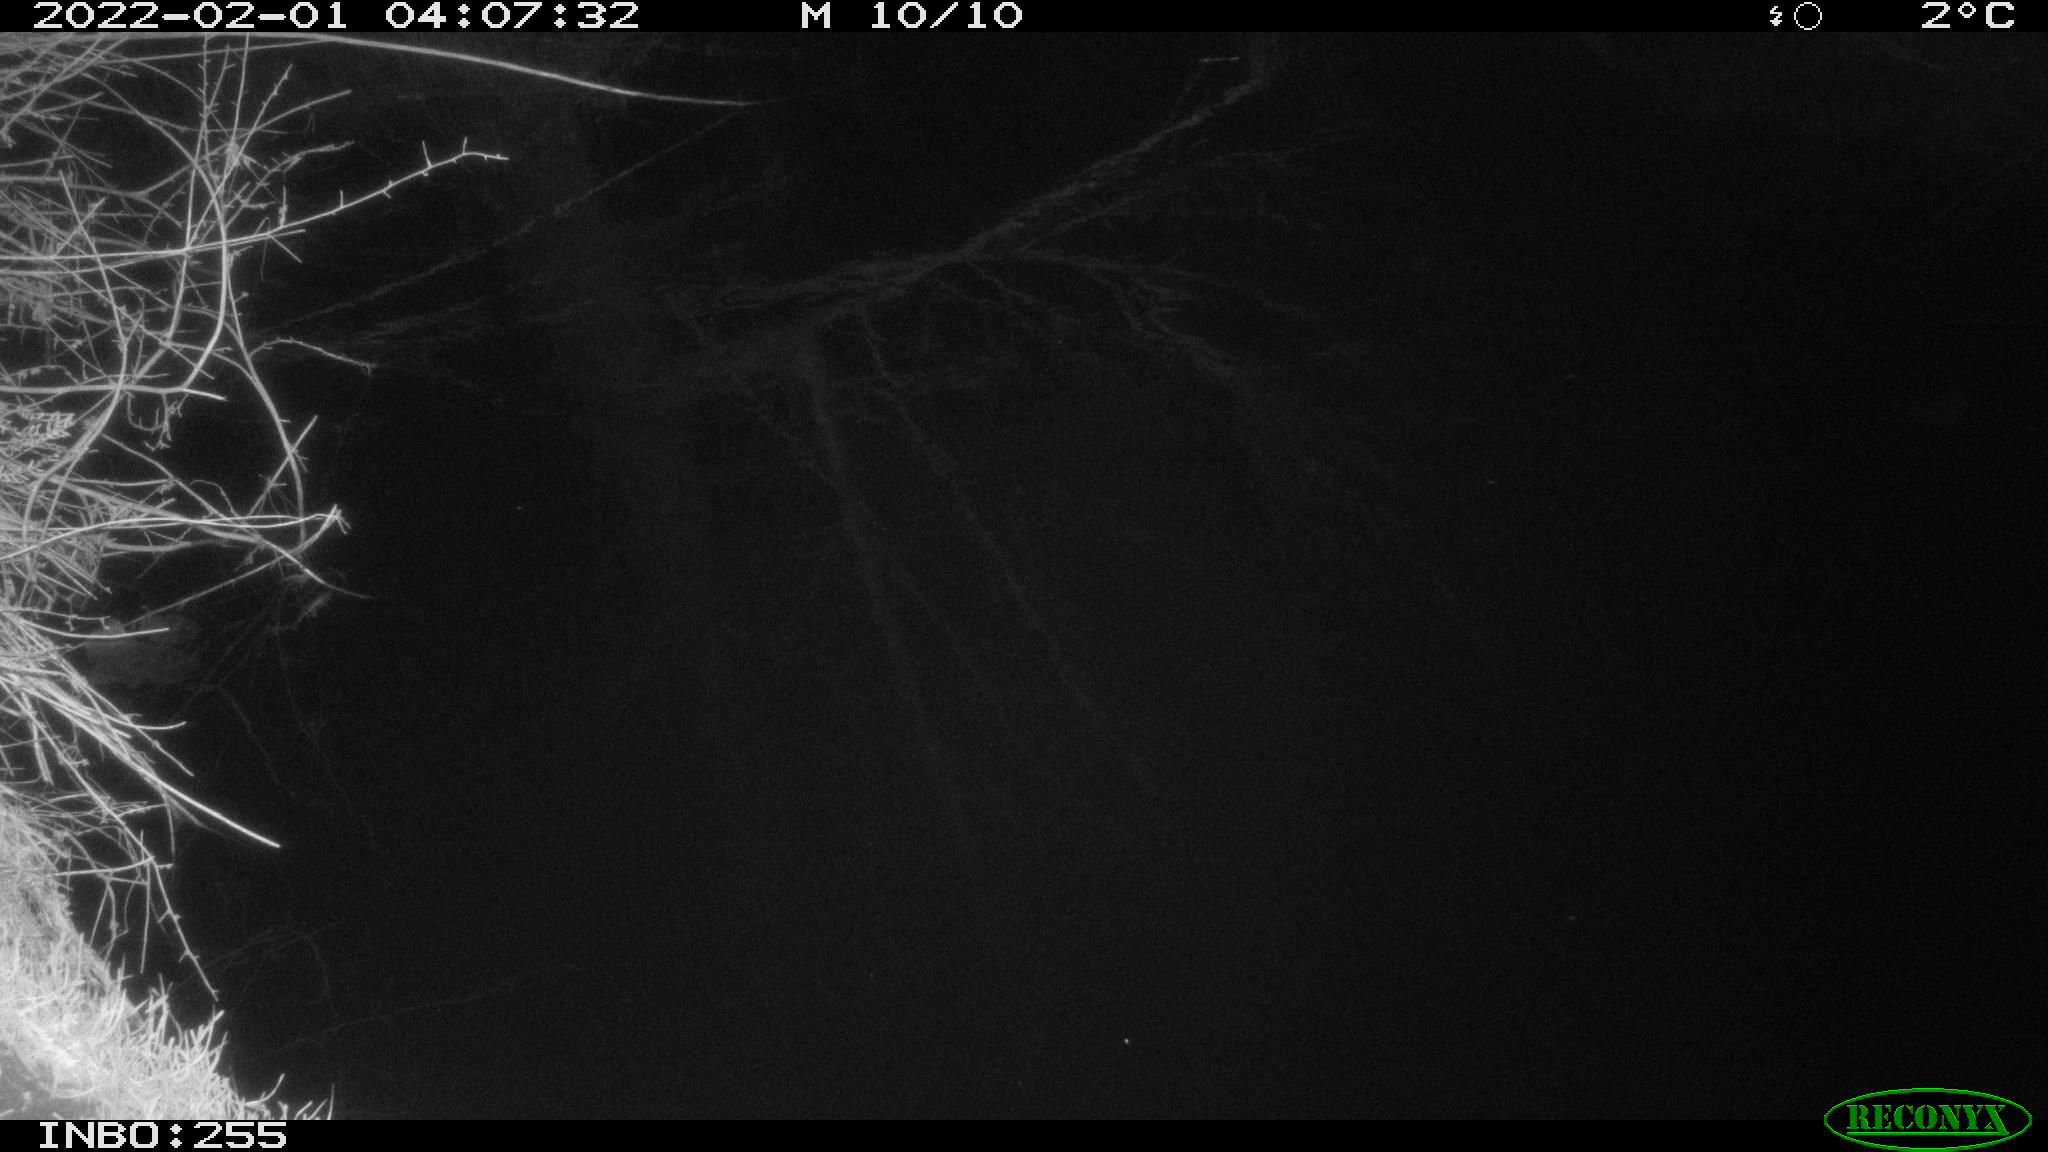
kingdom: Animalia
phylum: Chordata
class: Mammalia
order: Lagomorpha
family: Leporidae
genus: Lepus
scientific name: Lepus europaeus
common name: European hare
